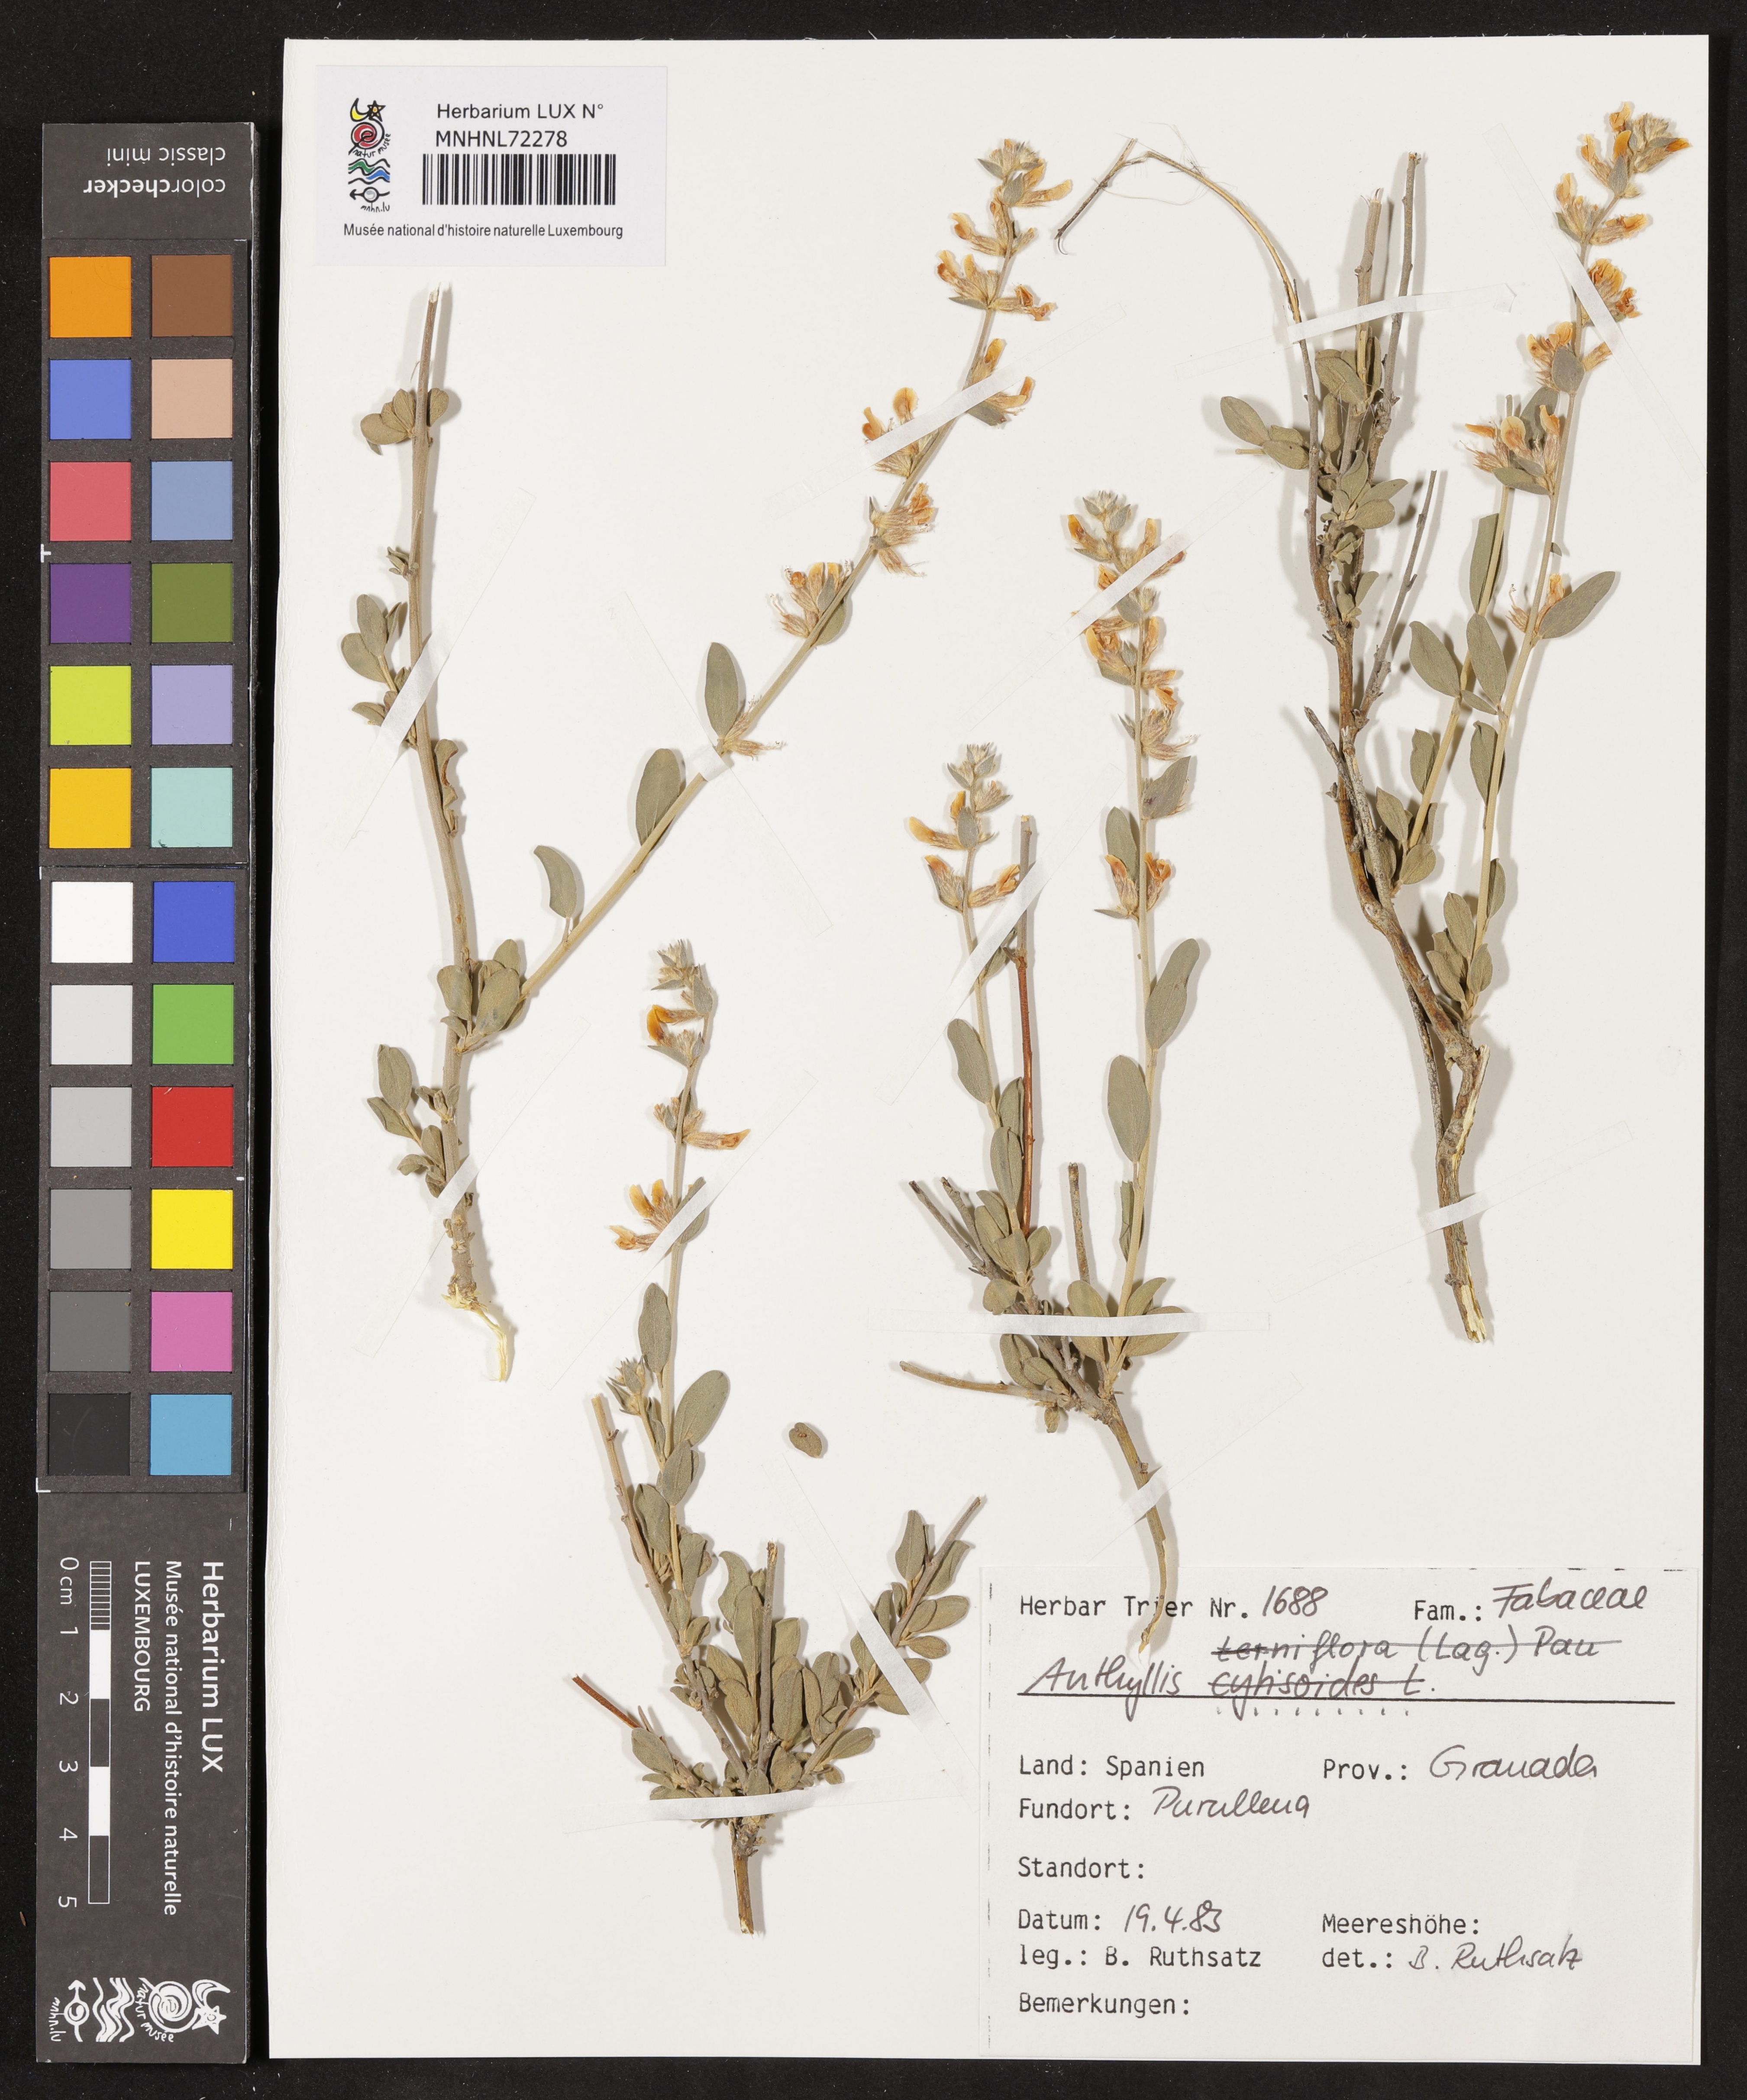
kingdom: Plantae
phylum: Tracheophyta
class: Magnoliopsida
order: Fabales
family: Fabaceae
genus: Anthyllis
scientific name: Anthyllis
